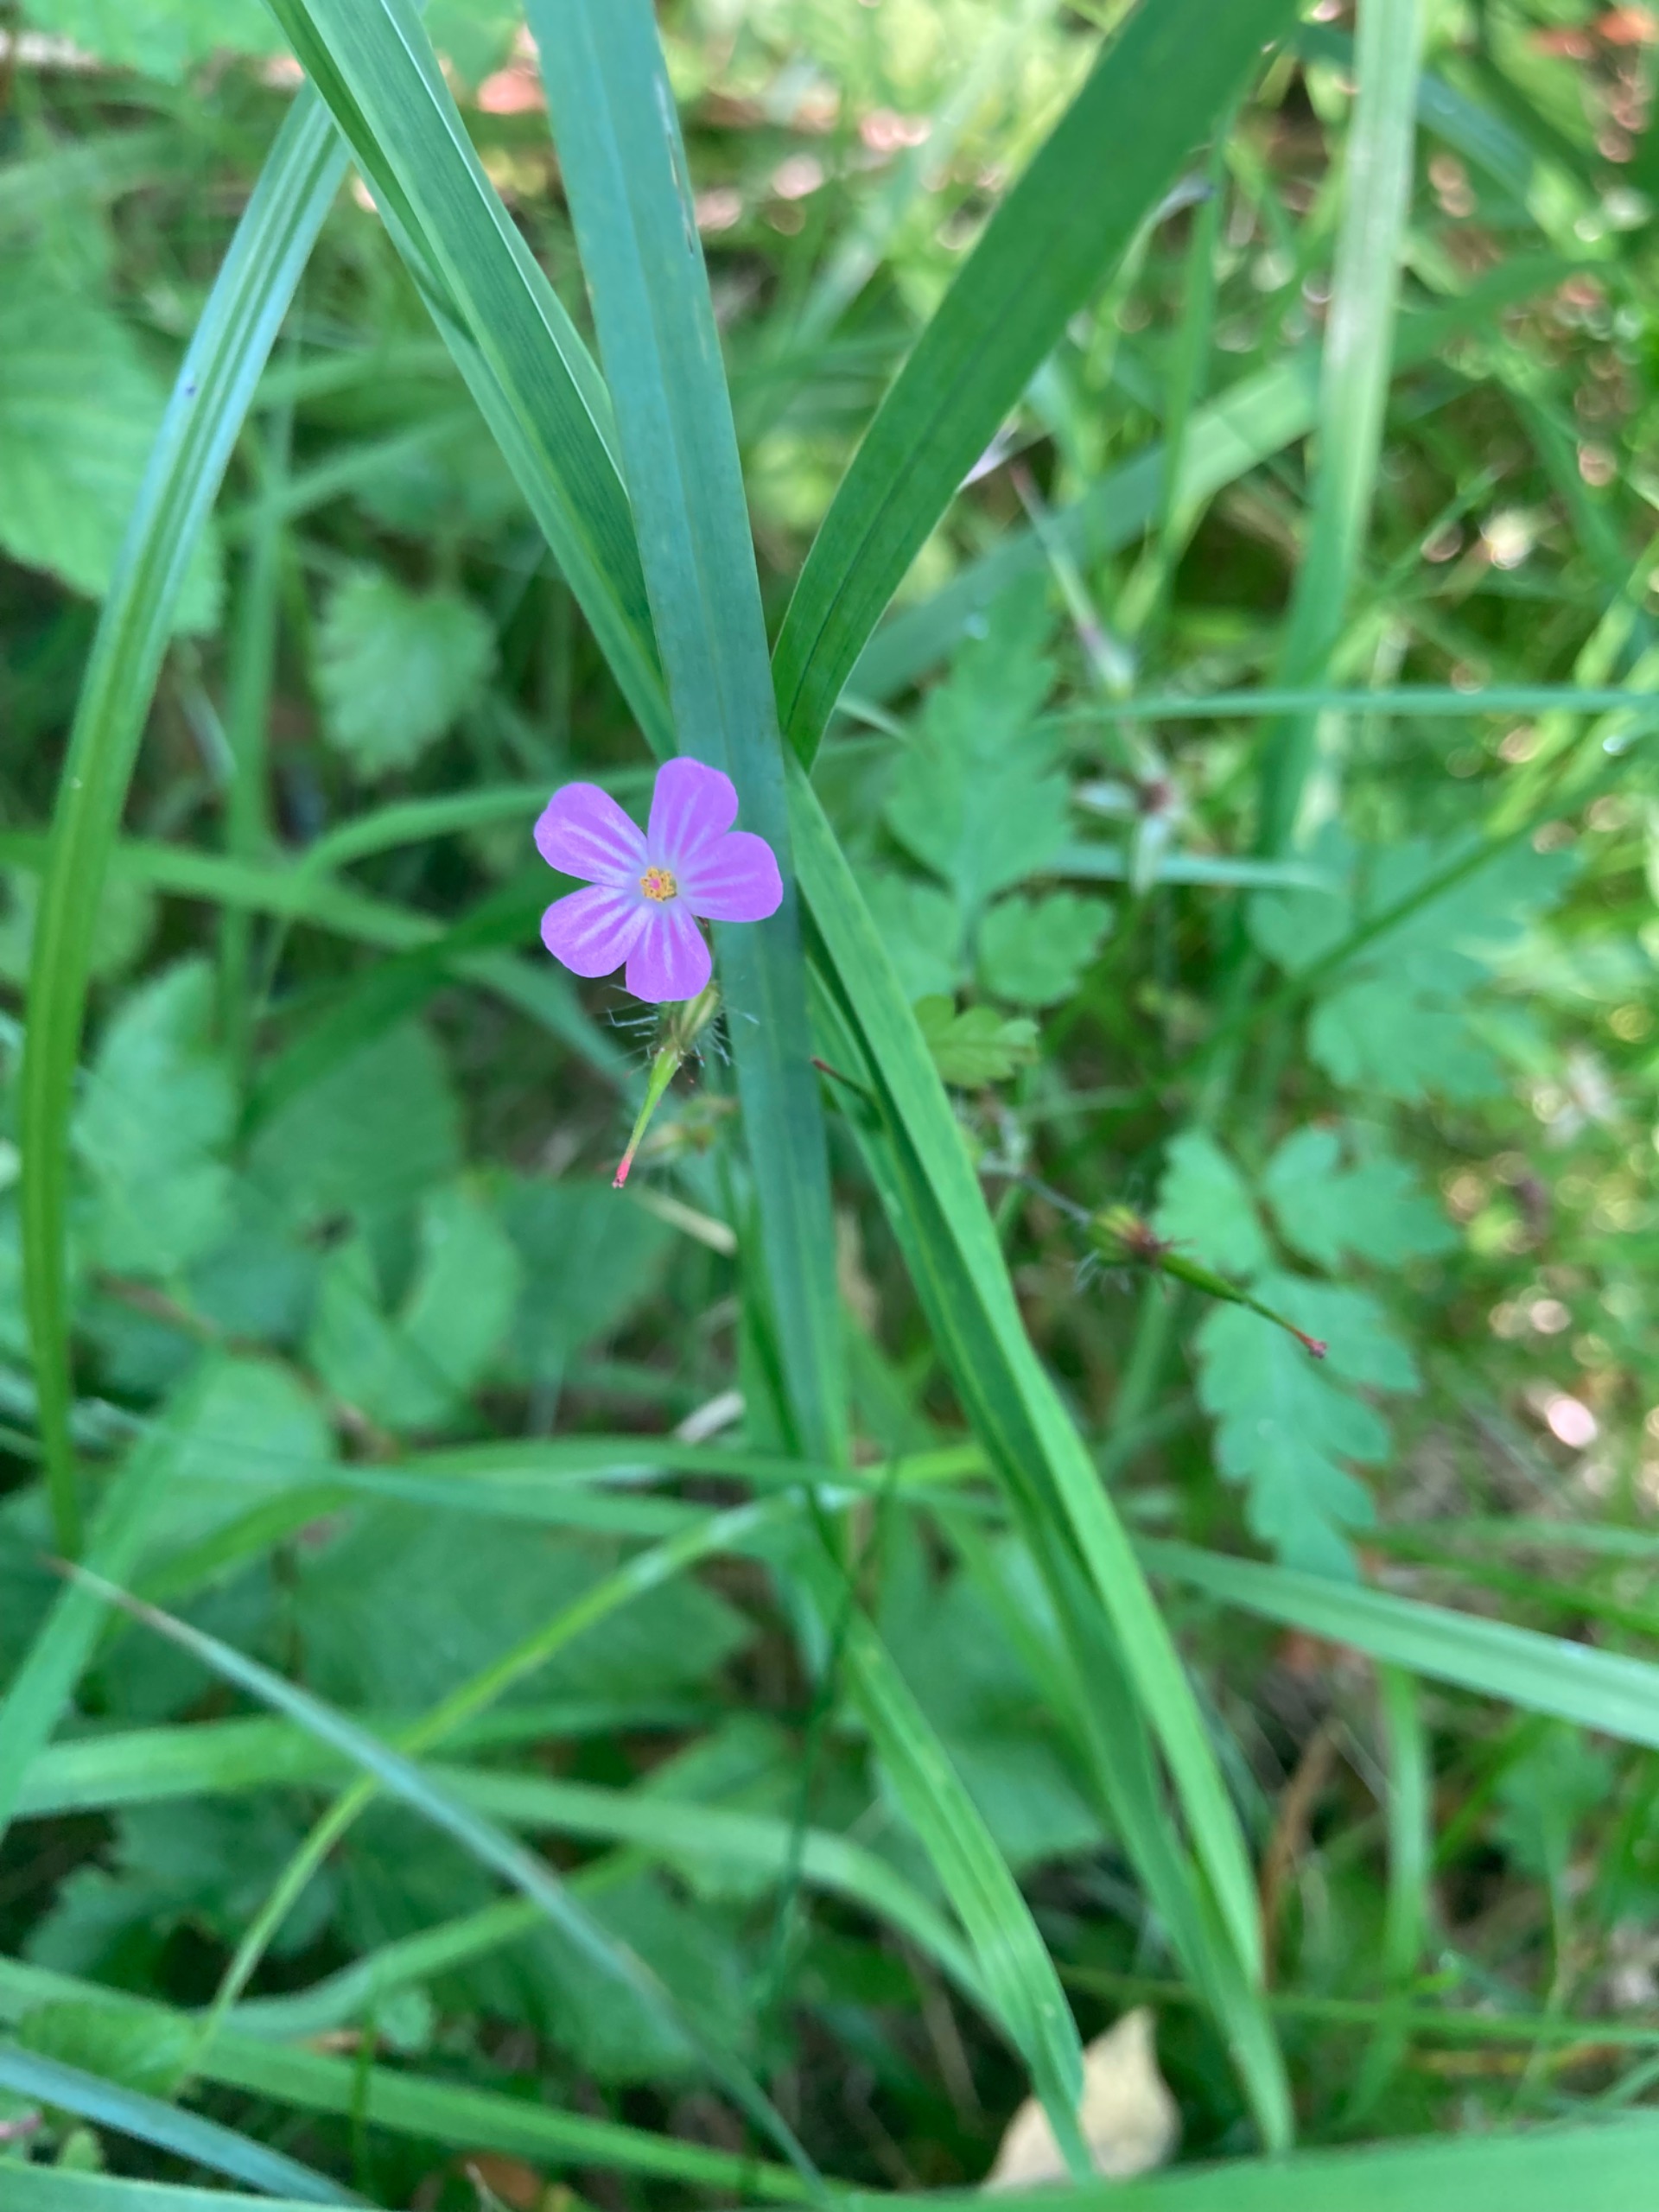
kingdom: Plantae
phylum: Tracheophyta
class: Magnoliopsida
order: Geraniales
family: Geraniaceae
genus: Geranium
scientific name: Geranium robertianum
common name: Stinkende storkenæb
